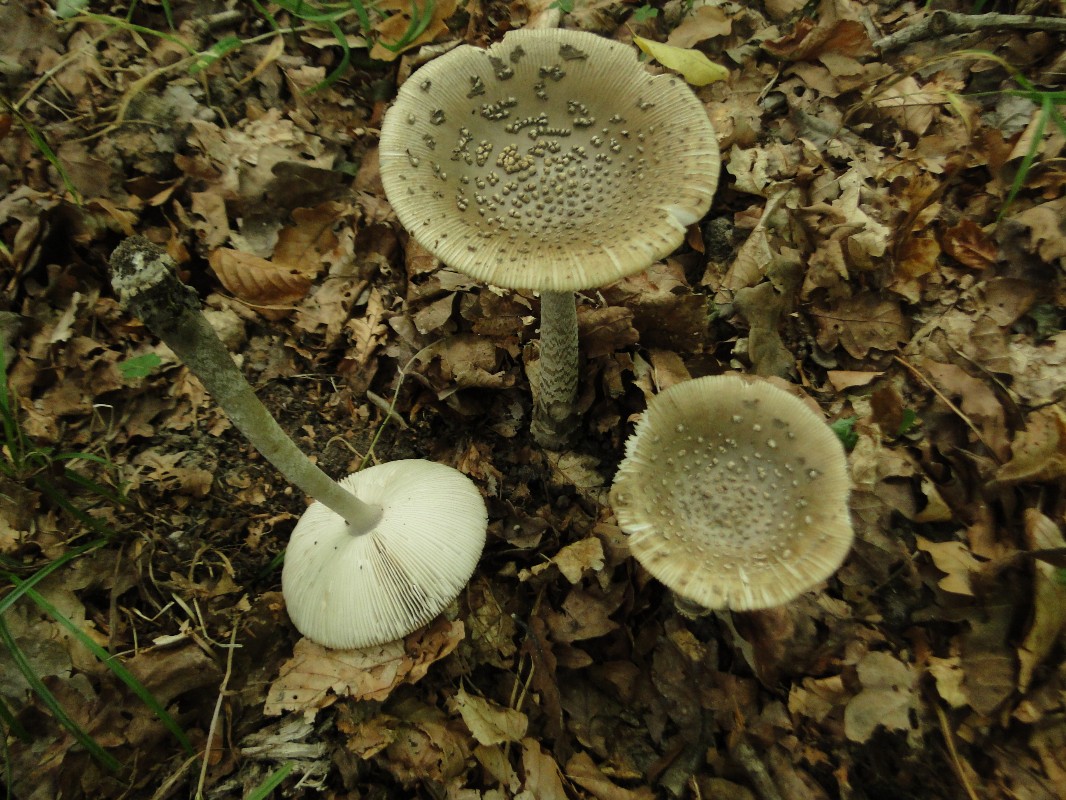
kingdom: Fungi
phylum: Basidiomycota
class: Agaricomycetes
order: Agaricales
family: Amanitaceae
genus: Amanita
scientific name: Amanita ceciliae
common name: stor kam-fluesvamp
